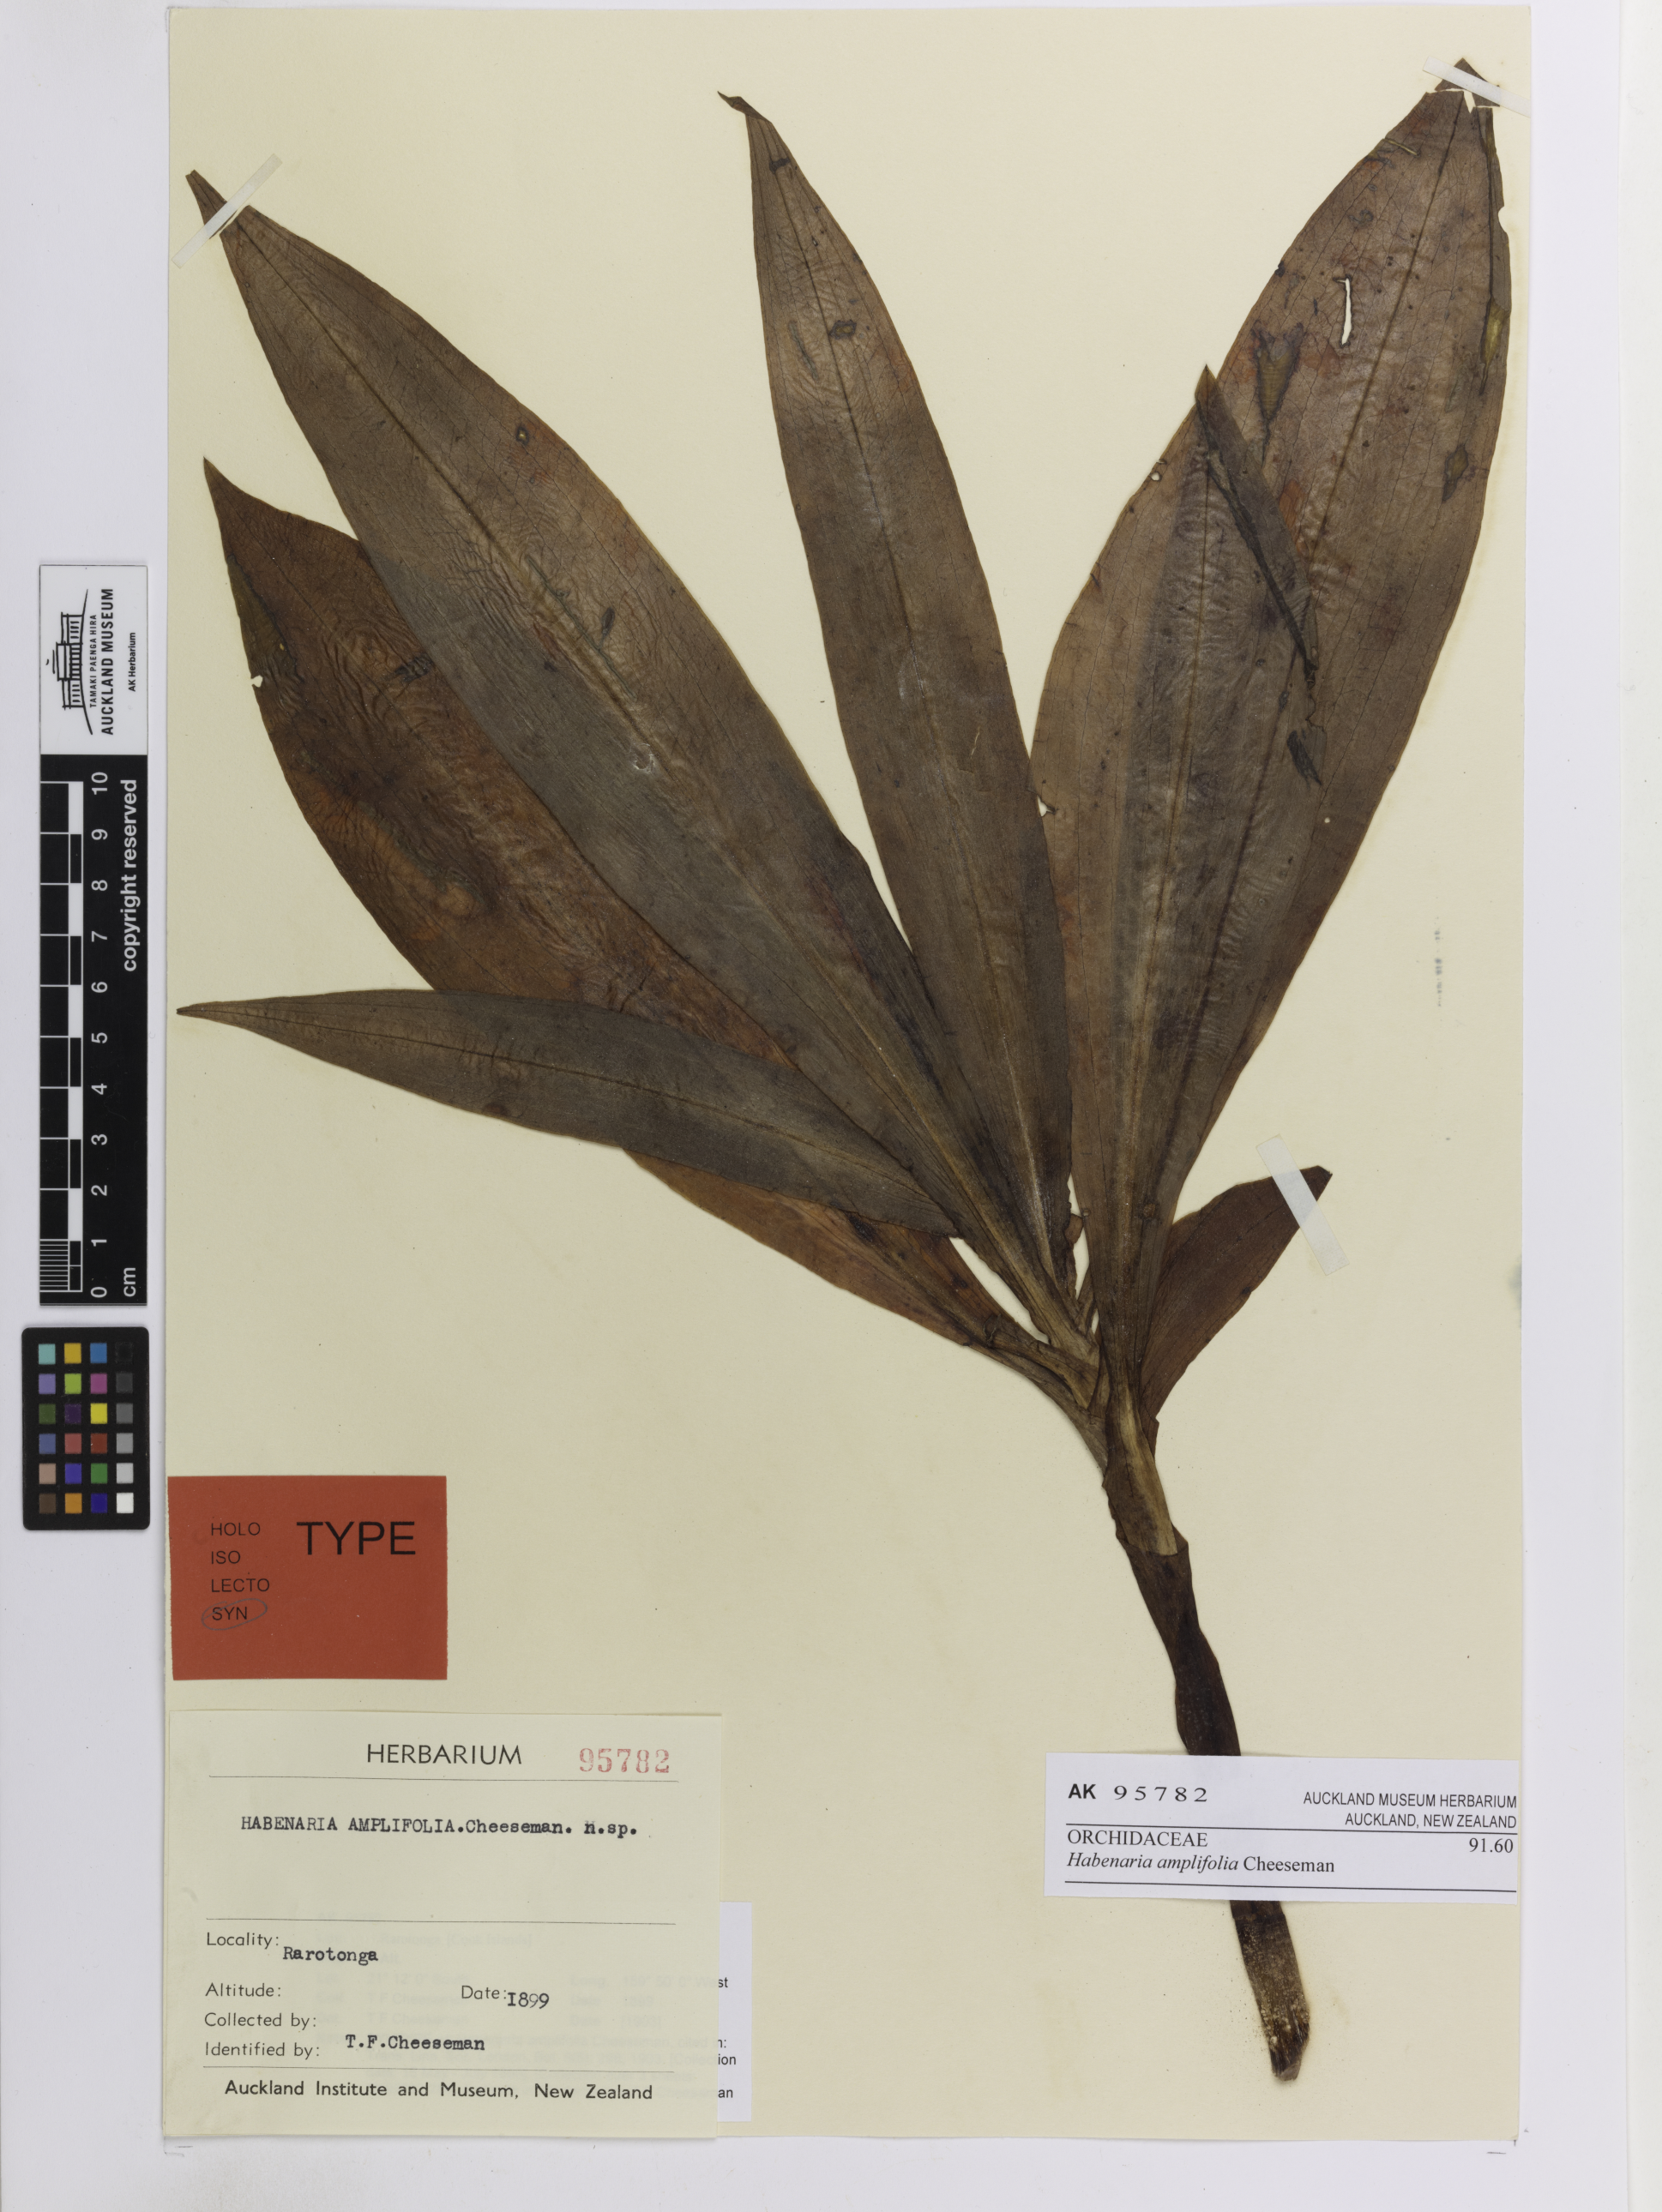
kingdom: Plantae
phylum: Tracheophyta
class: Liliopsida
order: Asparagales
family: Orchidaceae
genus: Habenaria
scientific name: Habenaria amplifolia
